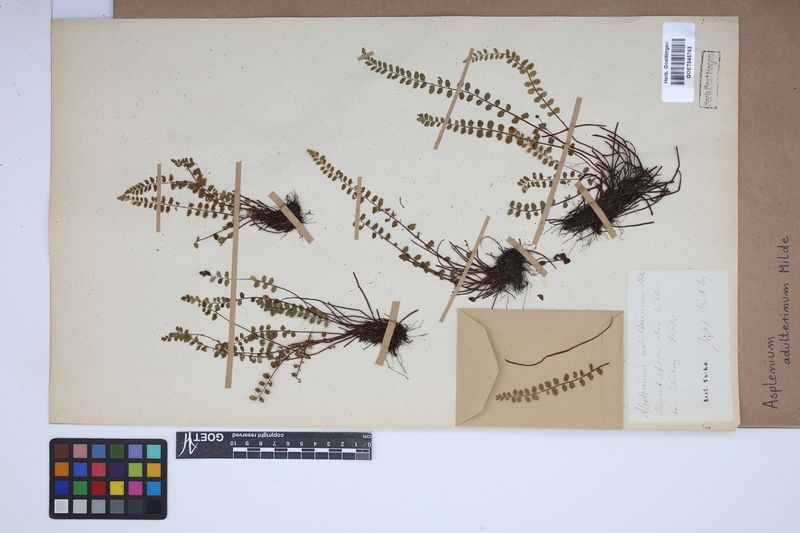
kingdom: Plantae
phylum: Tracheophyta
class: Polypodiopsida
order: Polypodiales
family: Aspleniaceae
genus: Asplenium
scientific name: Asplenium adulterinum
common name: Adulterated spleenwort
